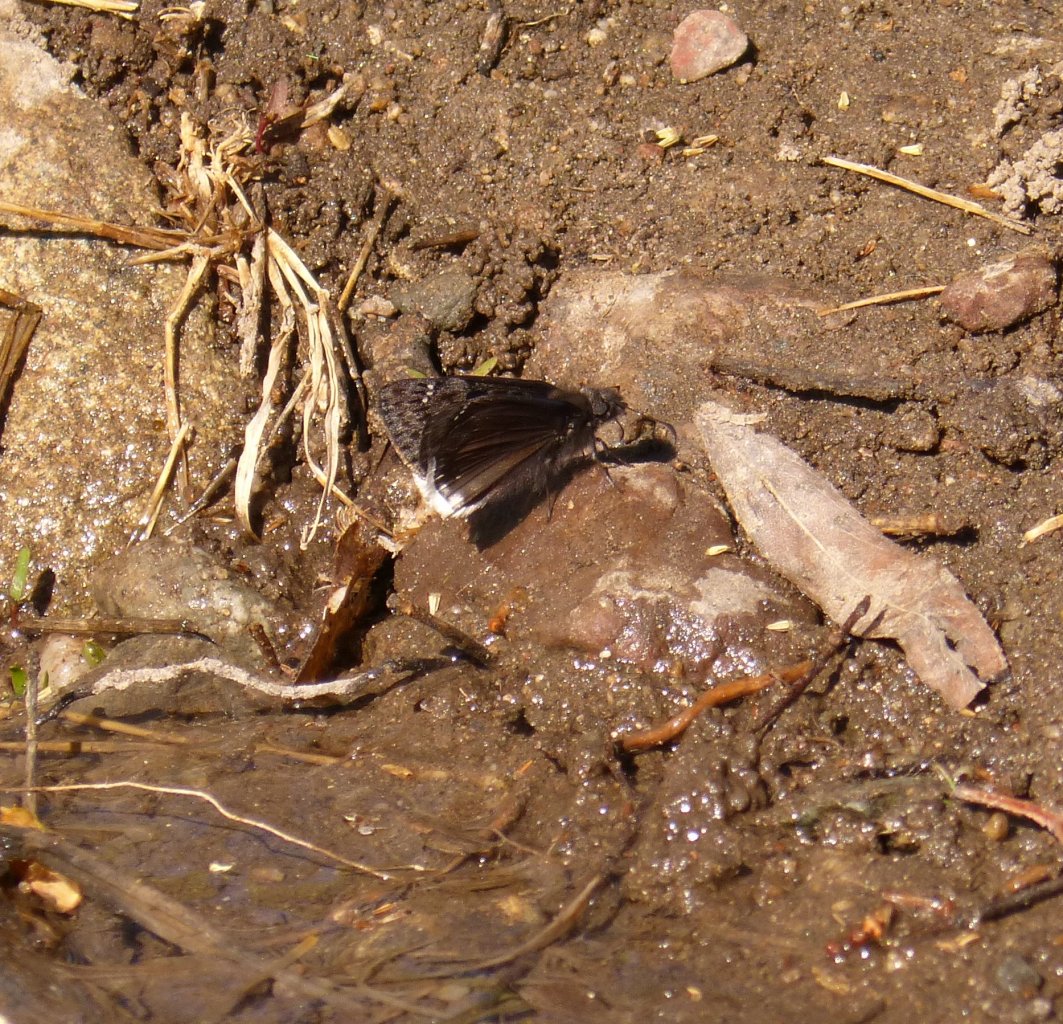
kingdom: Animalia
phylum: Arthropoda
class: Insecta
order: Lepidoptera
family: Hesperiidae
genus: Erynnis
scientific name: Erynnis tristis
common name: Mournful Duskywing
